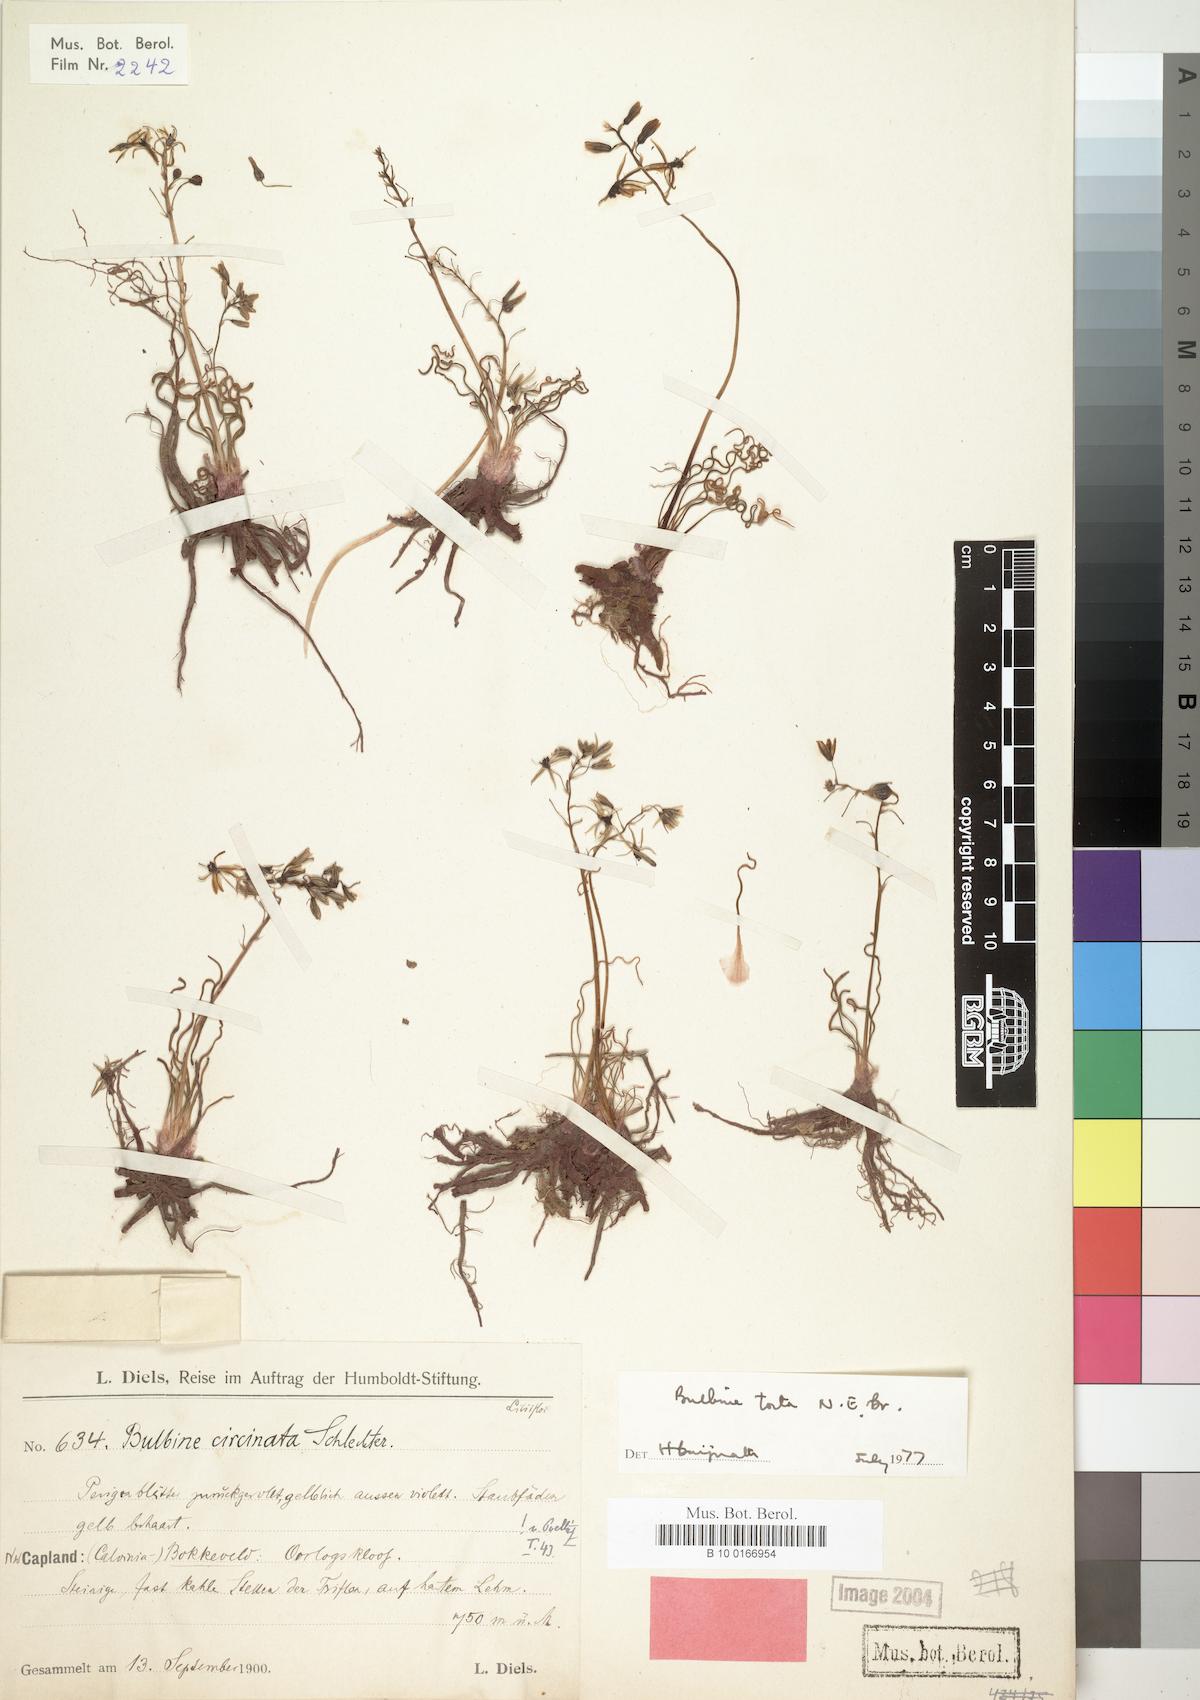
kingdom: Plantae
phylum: Tracheophyta
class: Liliopsida
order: Asparagales
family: Asphodelaceae
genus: Bulbine
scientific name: Bulbine torta
